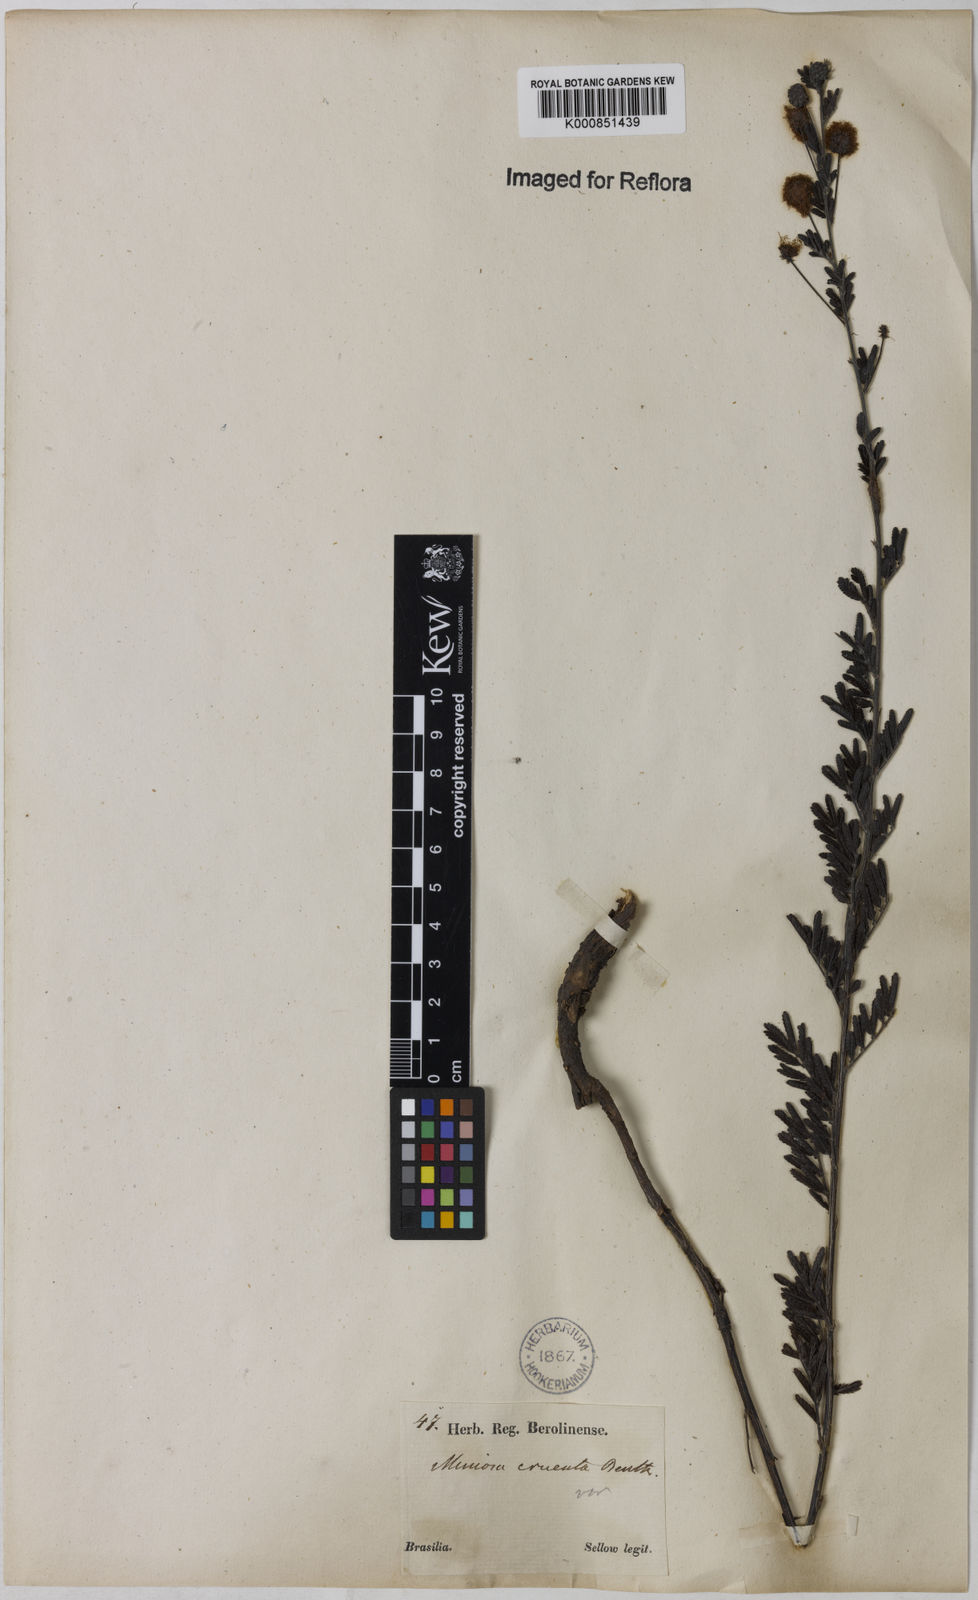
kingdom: Plantae
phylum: Tracheophyta
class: Magnoliopsida
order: Fabales
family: Fabaceae
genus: Mimosa
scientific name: Mimosa sanguinolenta
